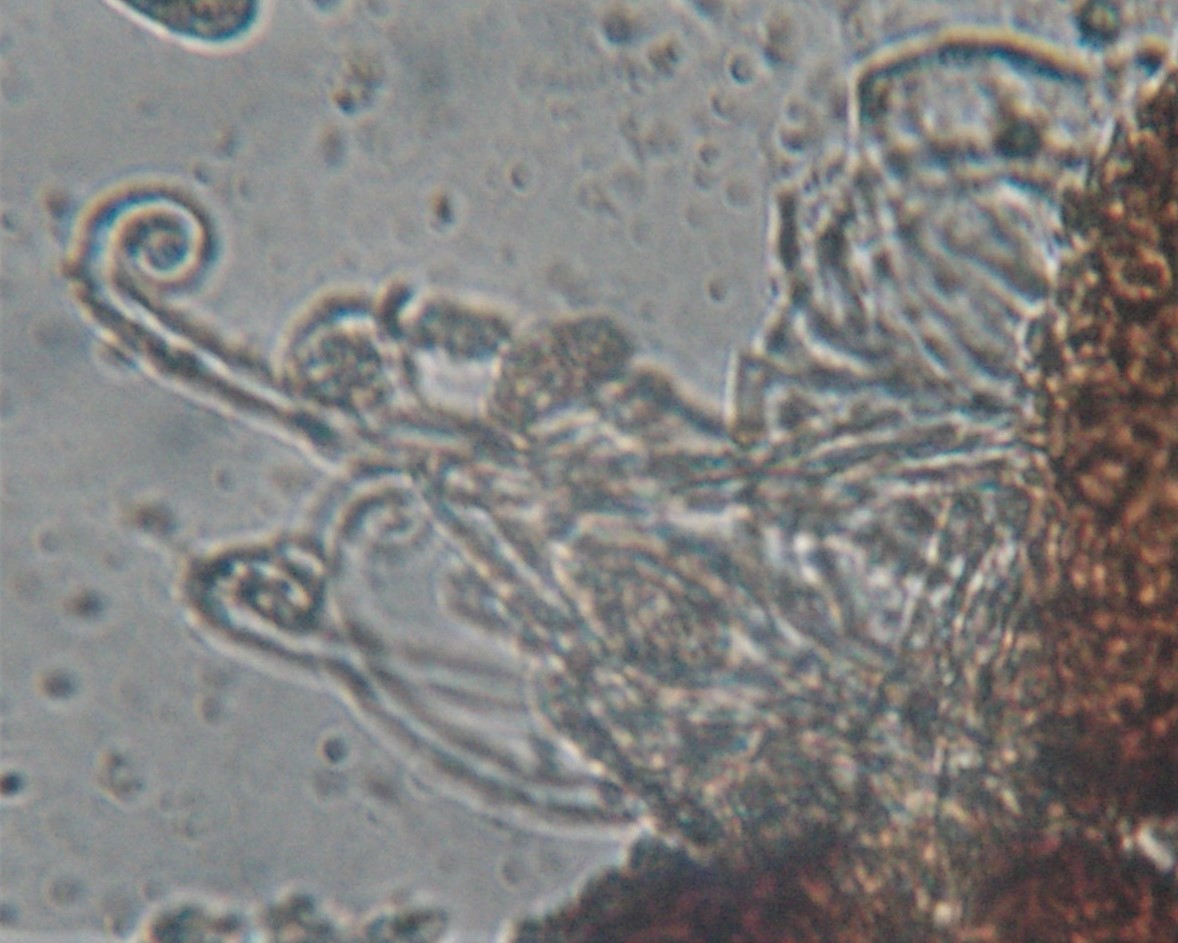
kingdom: Fungi
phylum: Ascomycota
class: Leotiomycetes
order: Helotiales
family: Erysiphaceae
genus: Erysiphe
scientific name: Erysiphe arcuata
